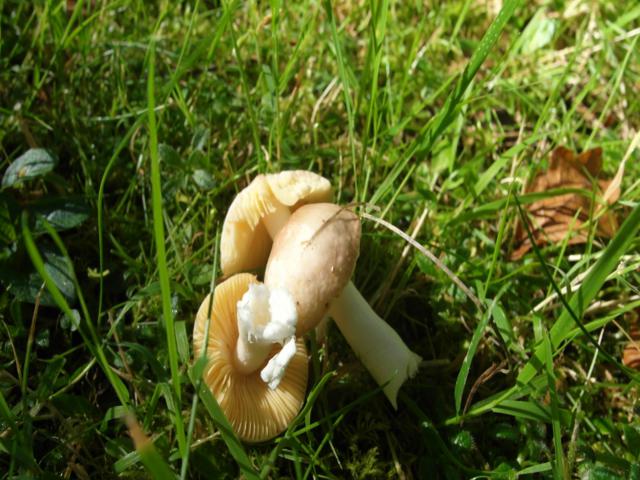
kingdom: Fungi
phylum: Basidiomycota
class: Agaricomycetes
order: Russulales
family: Russulaceae
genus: Russula
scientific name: Russula odorata
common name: duft-skørhat
